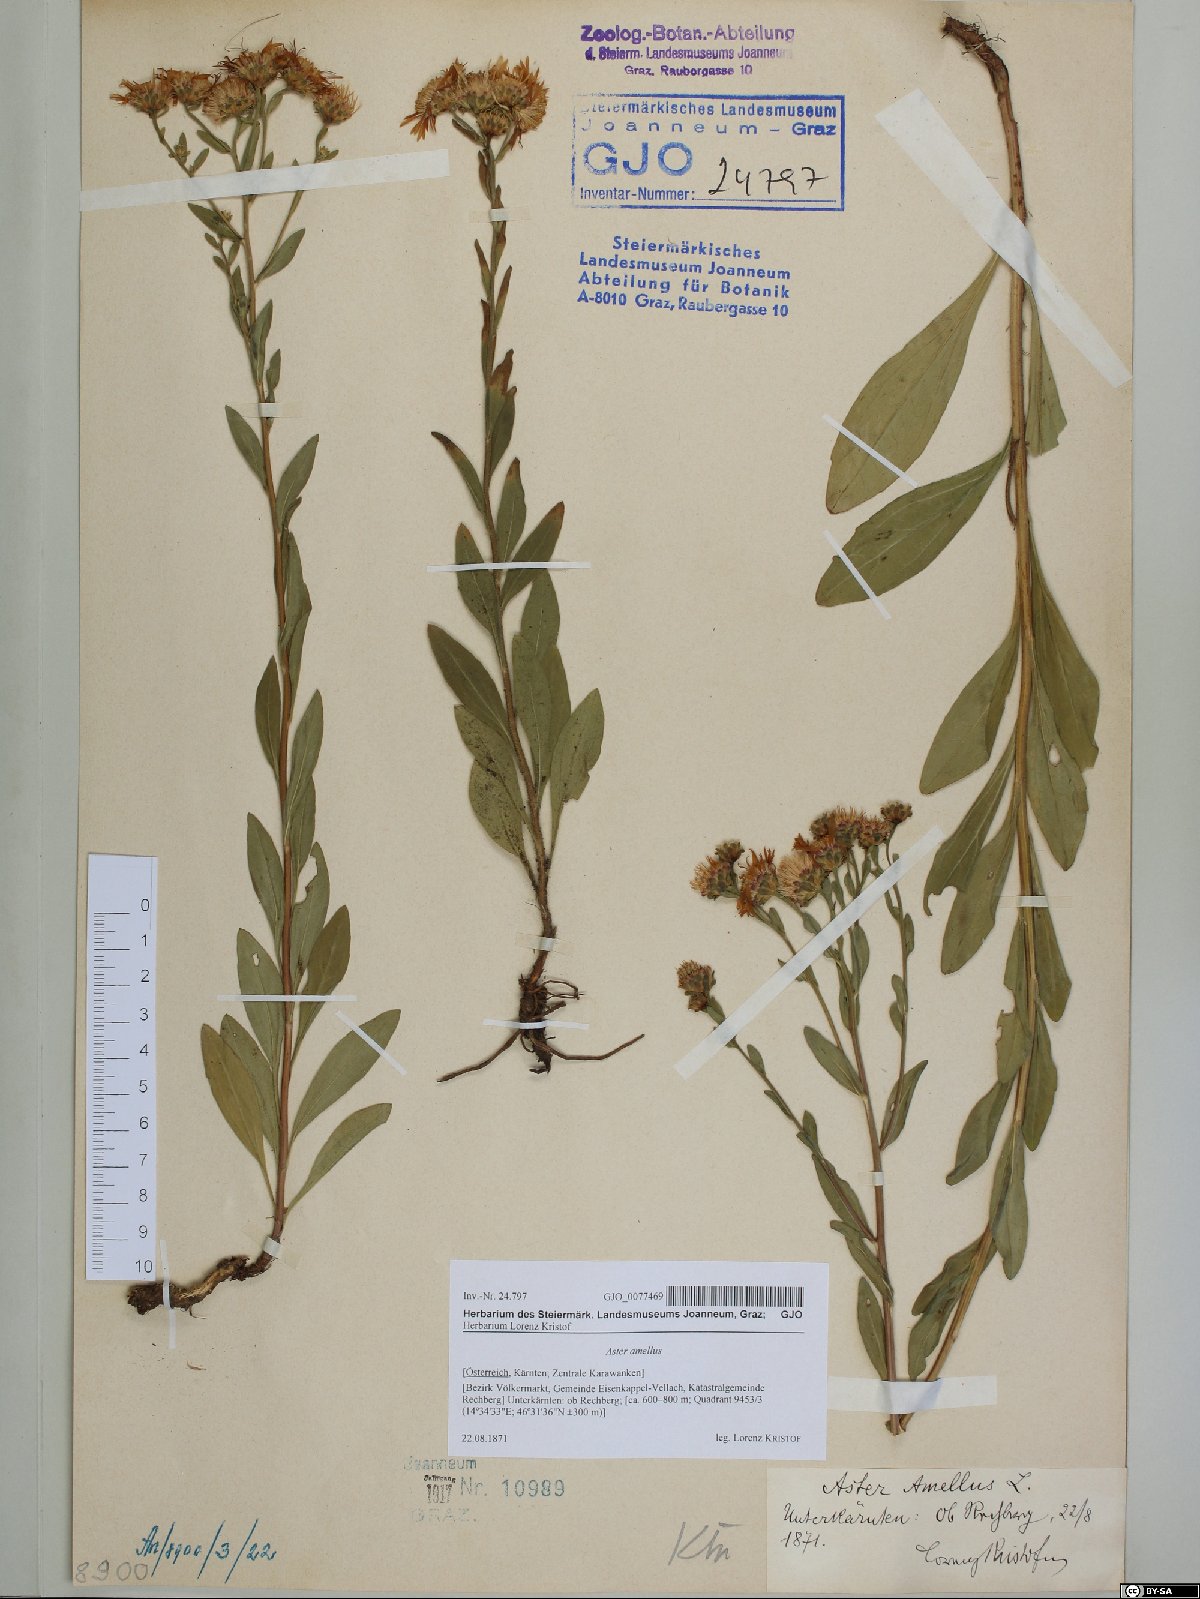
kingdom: Plantae
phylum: Tracheophyta
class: Magnoliopsida
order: Asterales
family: Asteraceae
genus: Aster
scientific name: Aster amellus
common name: European michaelmas daisy
